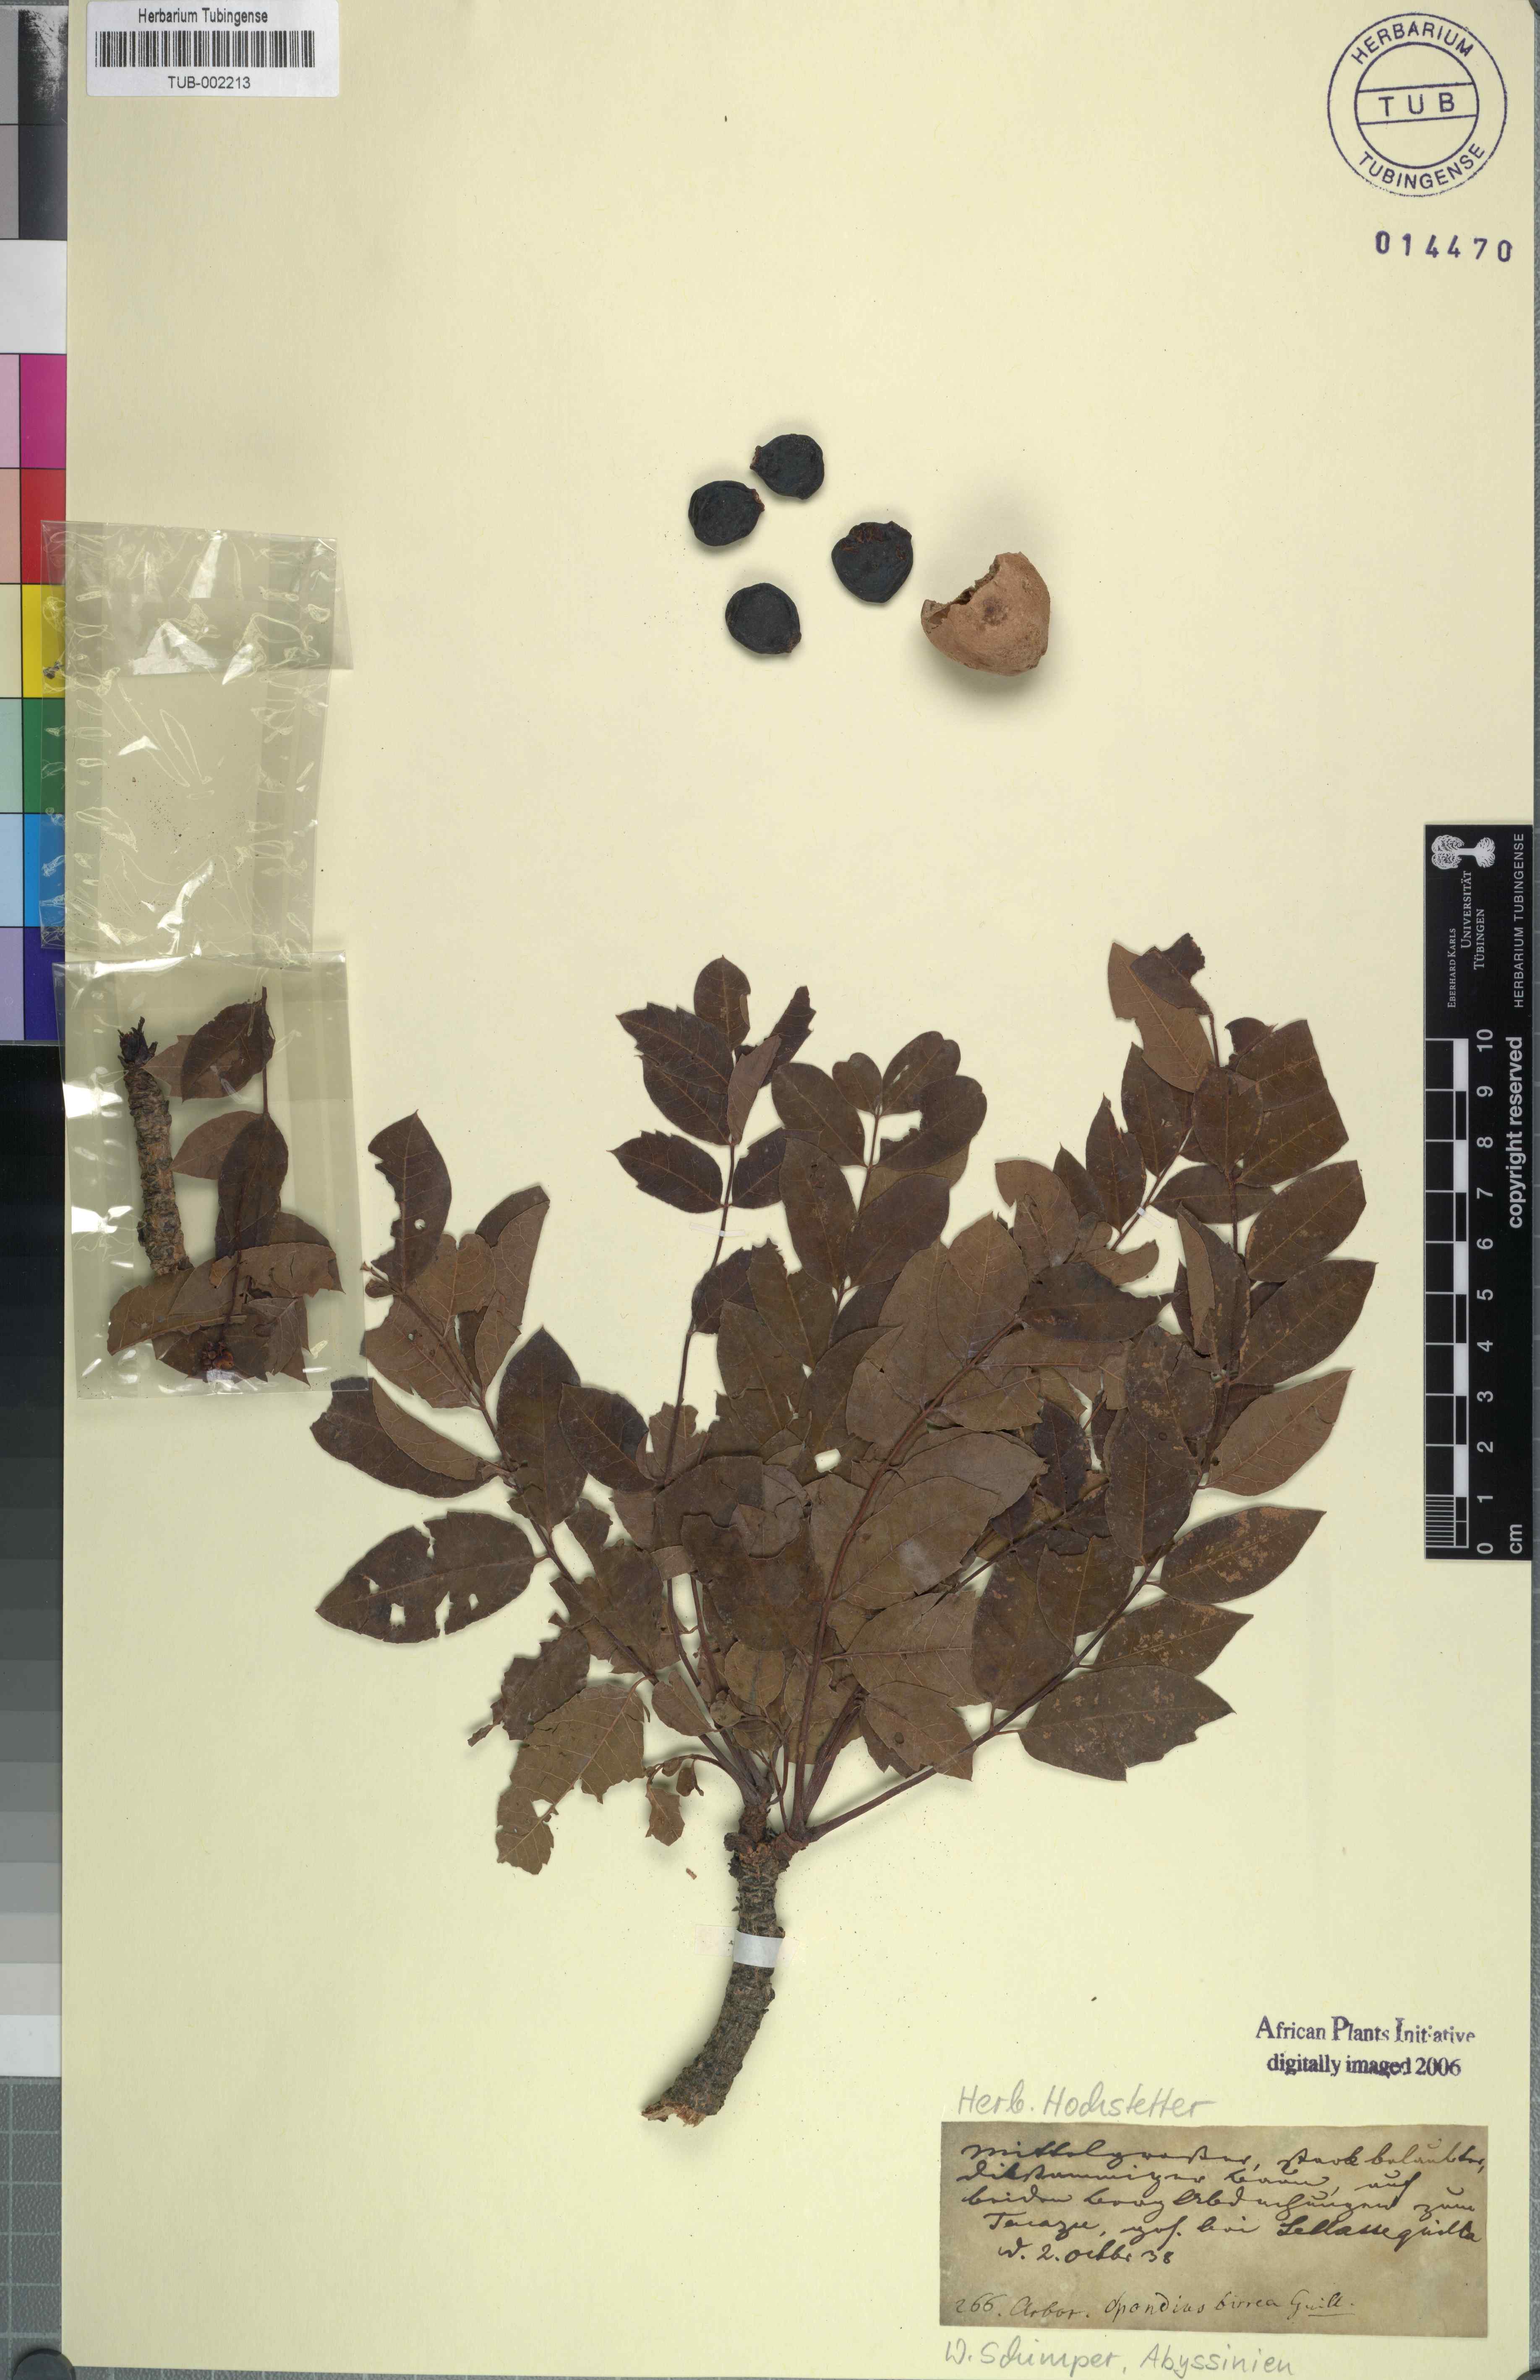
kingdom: Plantae
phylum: Tracheophyta
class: Magnoliopsida
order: Sapindales
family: Anacardiaceae
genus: Sclerocarya
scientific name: Sclerocarya birrea
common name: Marula
